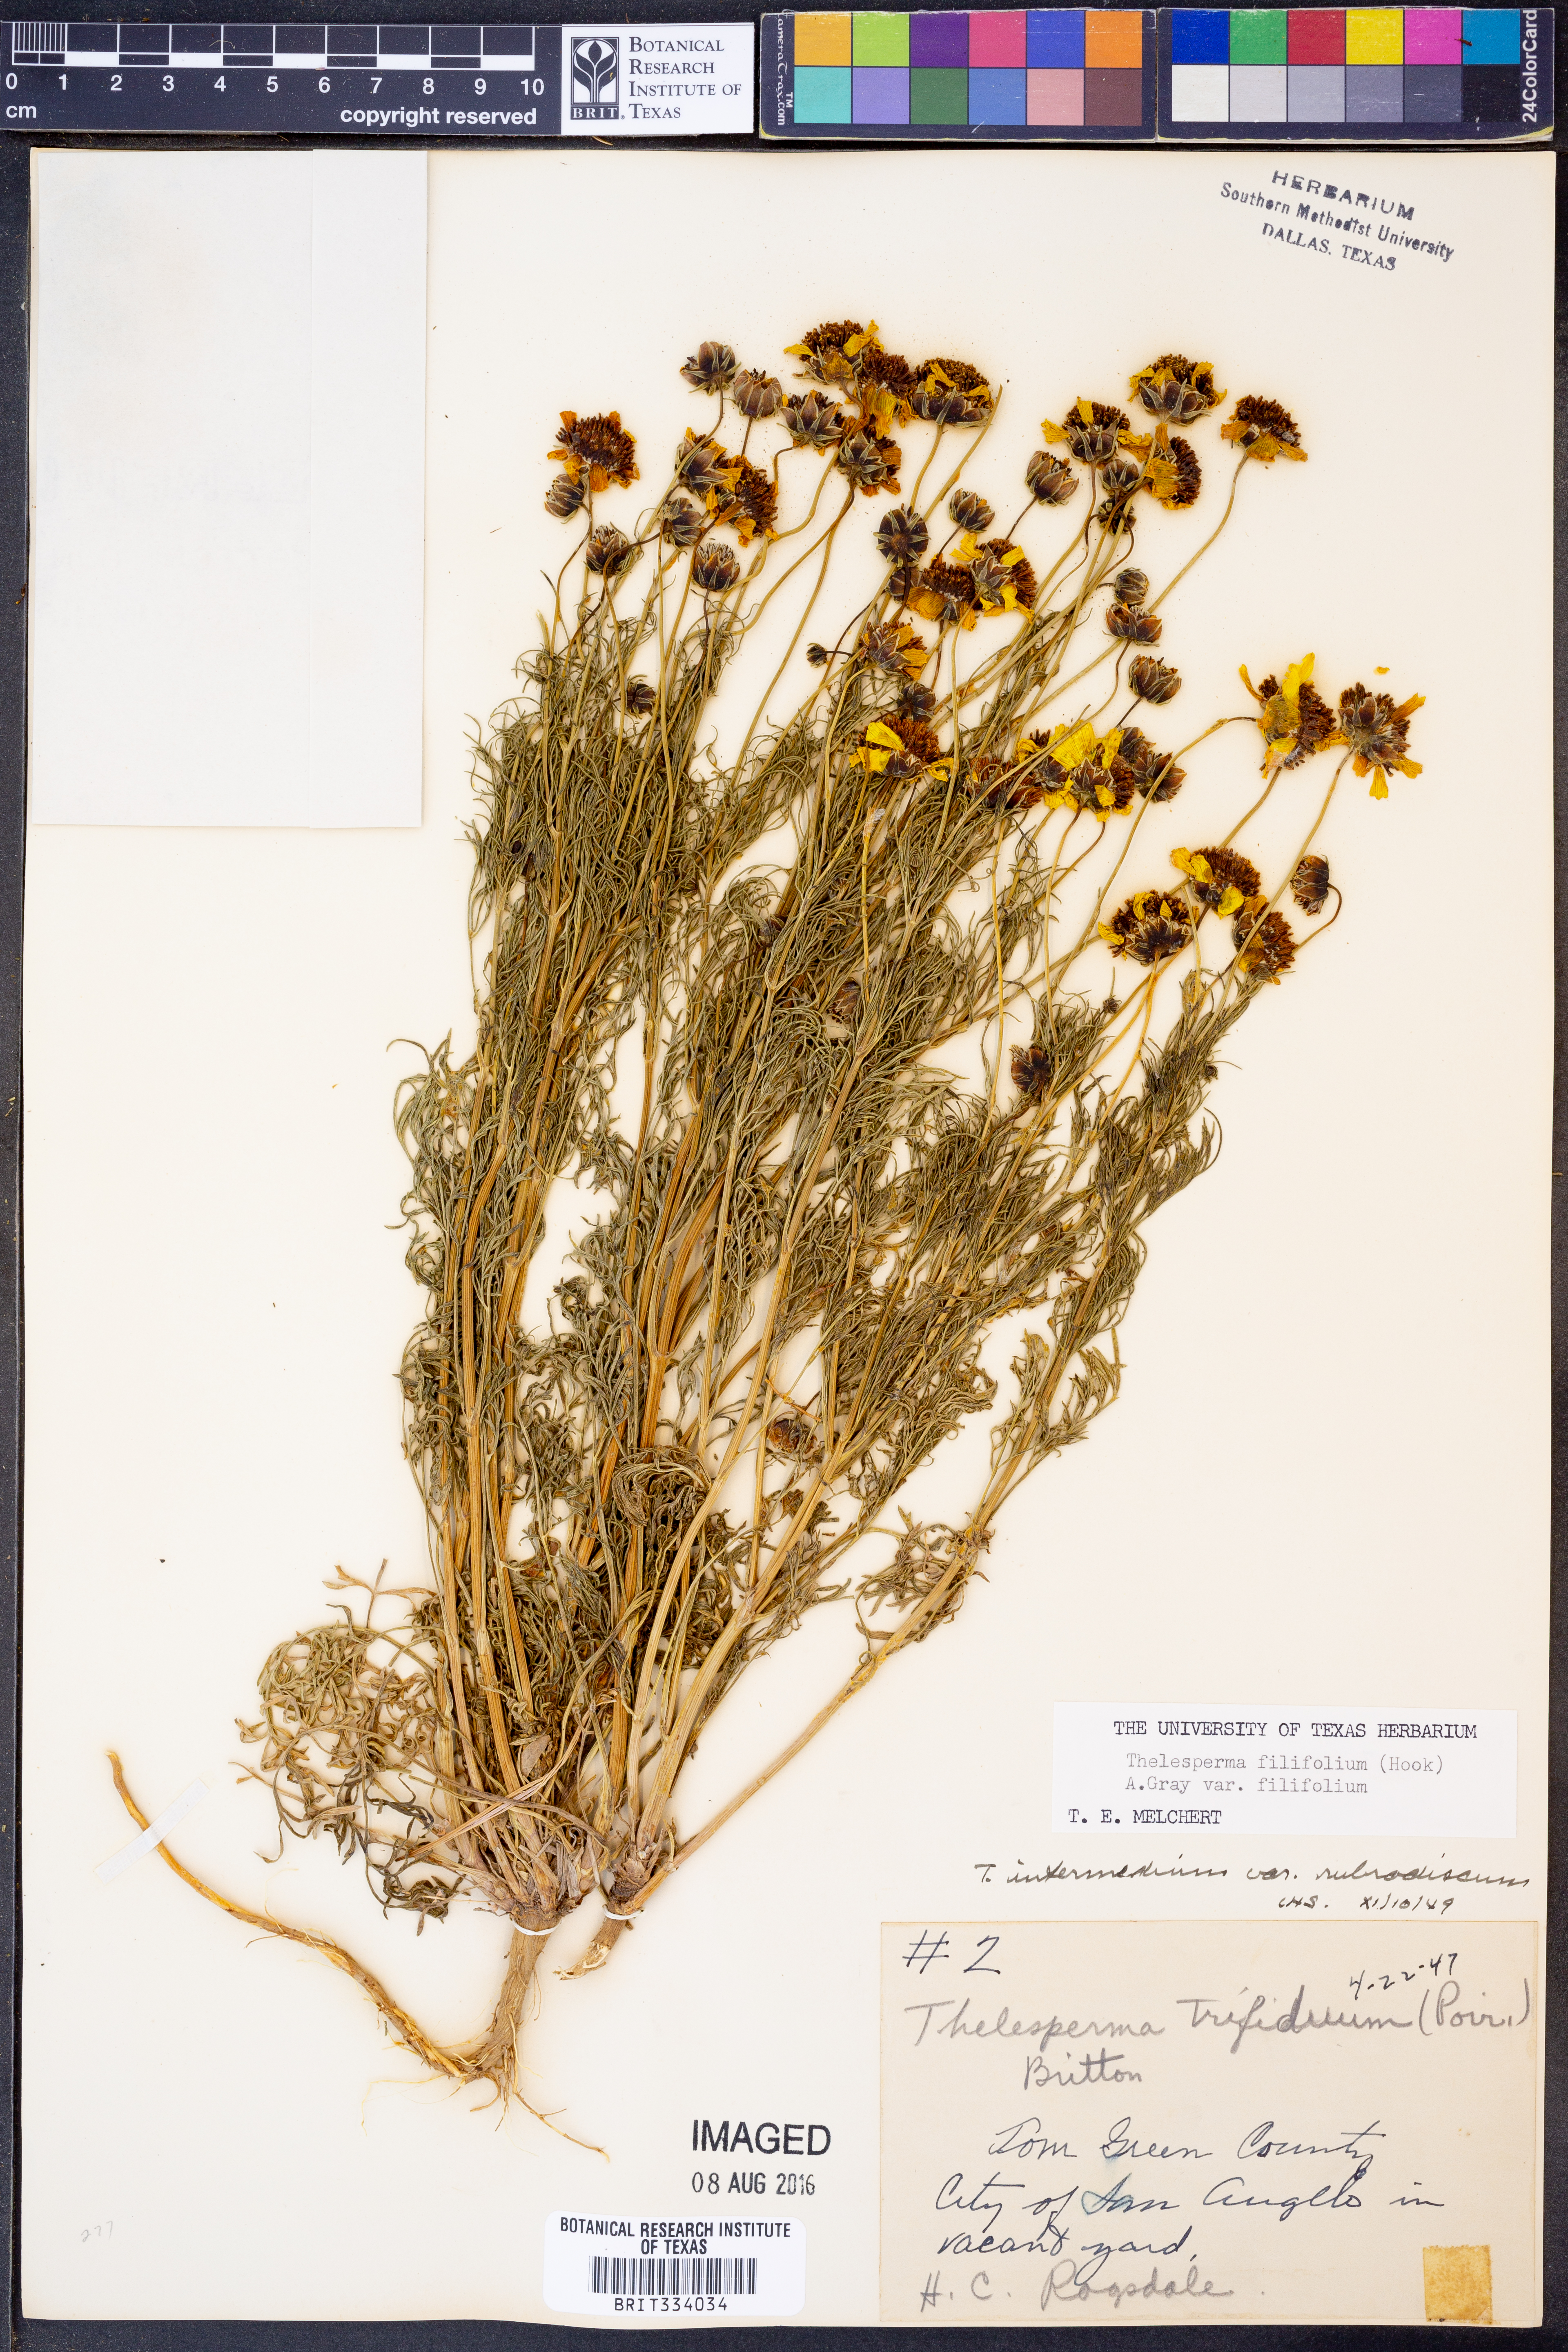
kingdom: Plantae
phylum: Tracheophyta
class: Magnoliopsida
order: Asterales
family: Asteraceae
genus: Thelesperma
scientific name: Thelesperma filifolium
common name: Stiff greenthread
